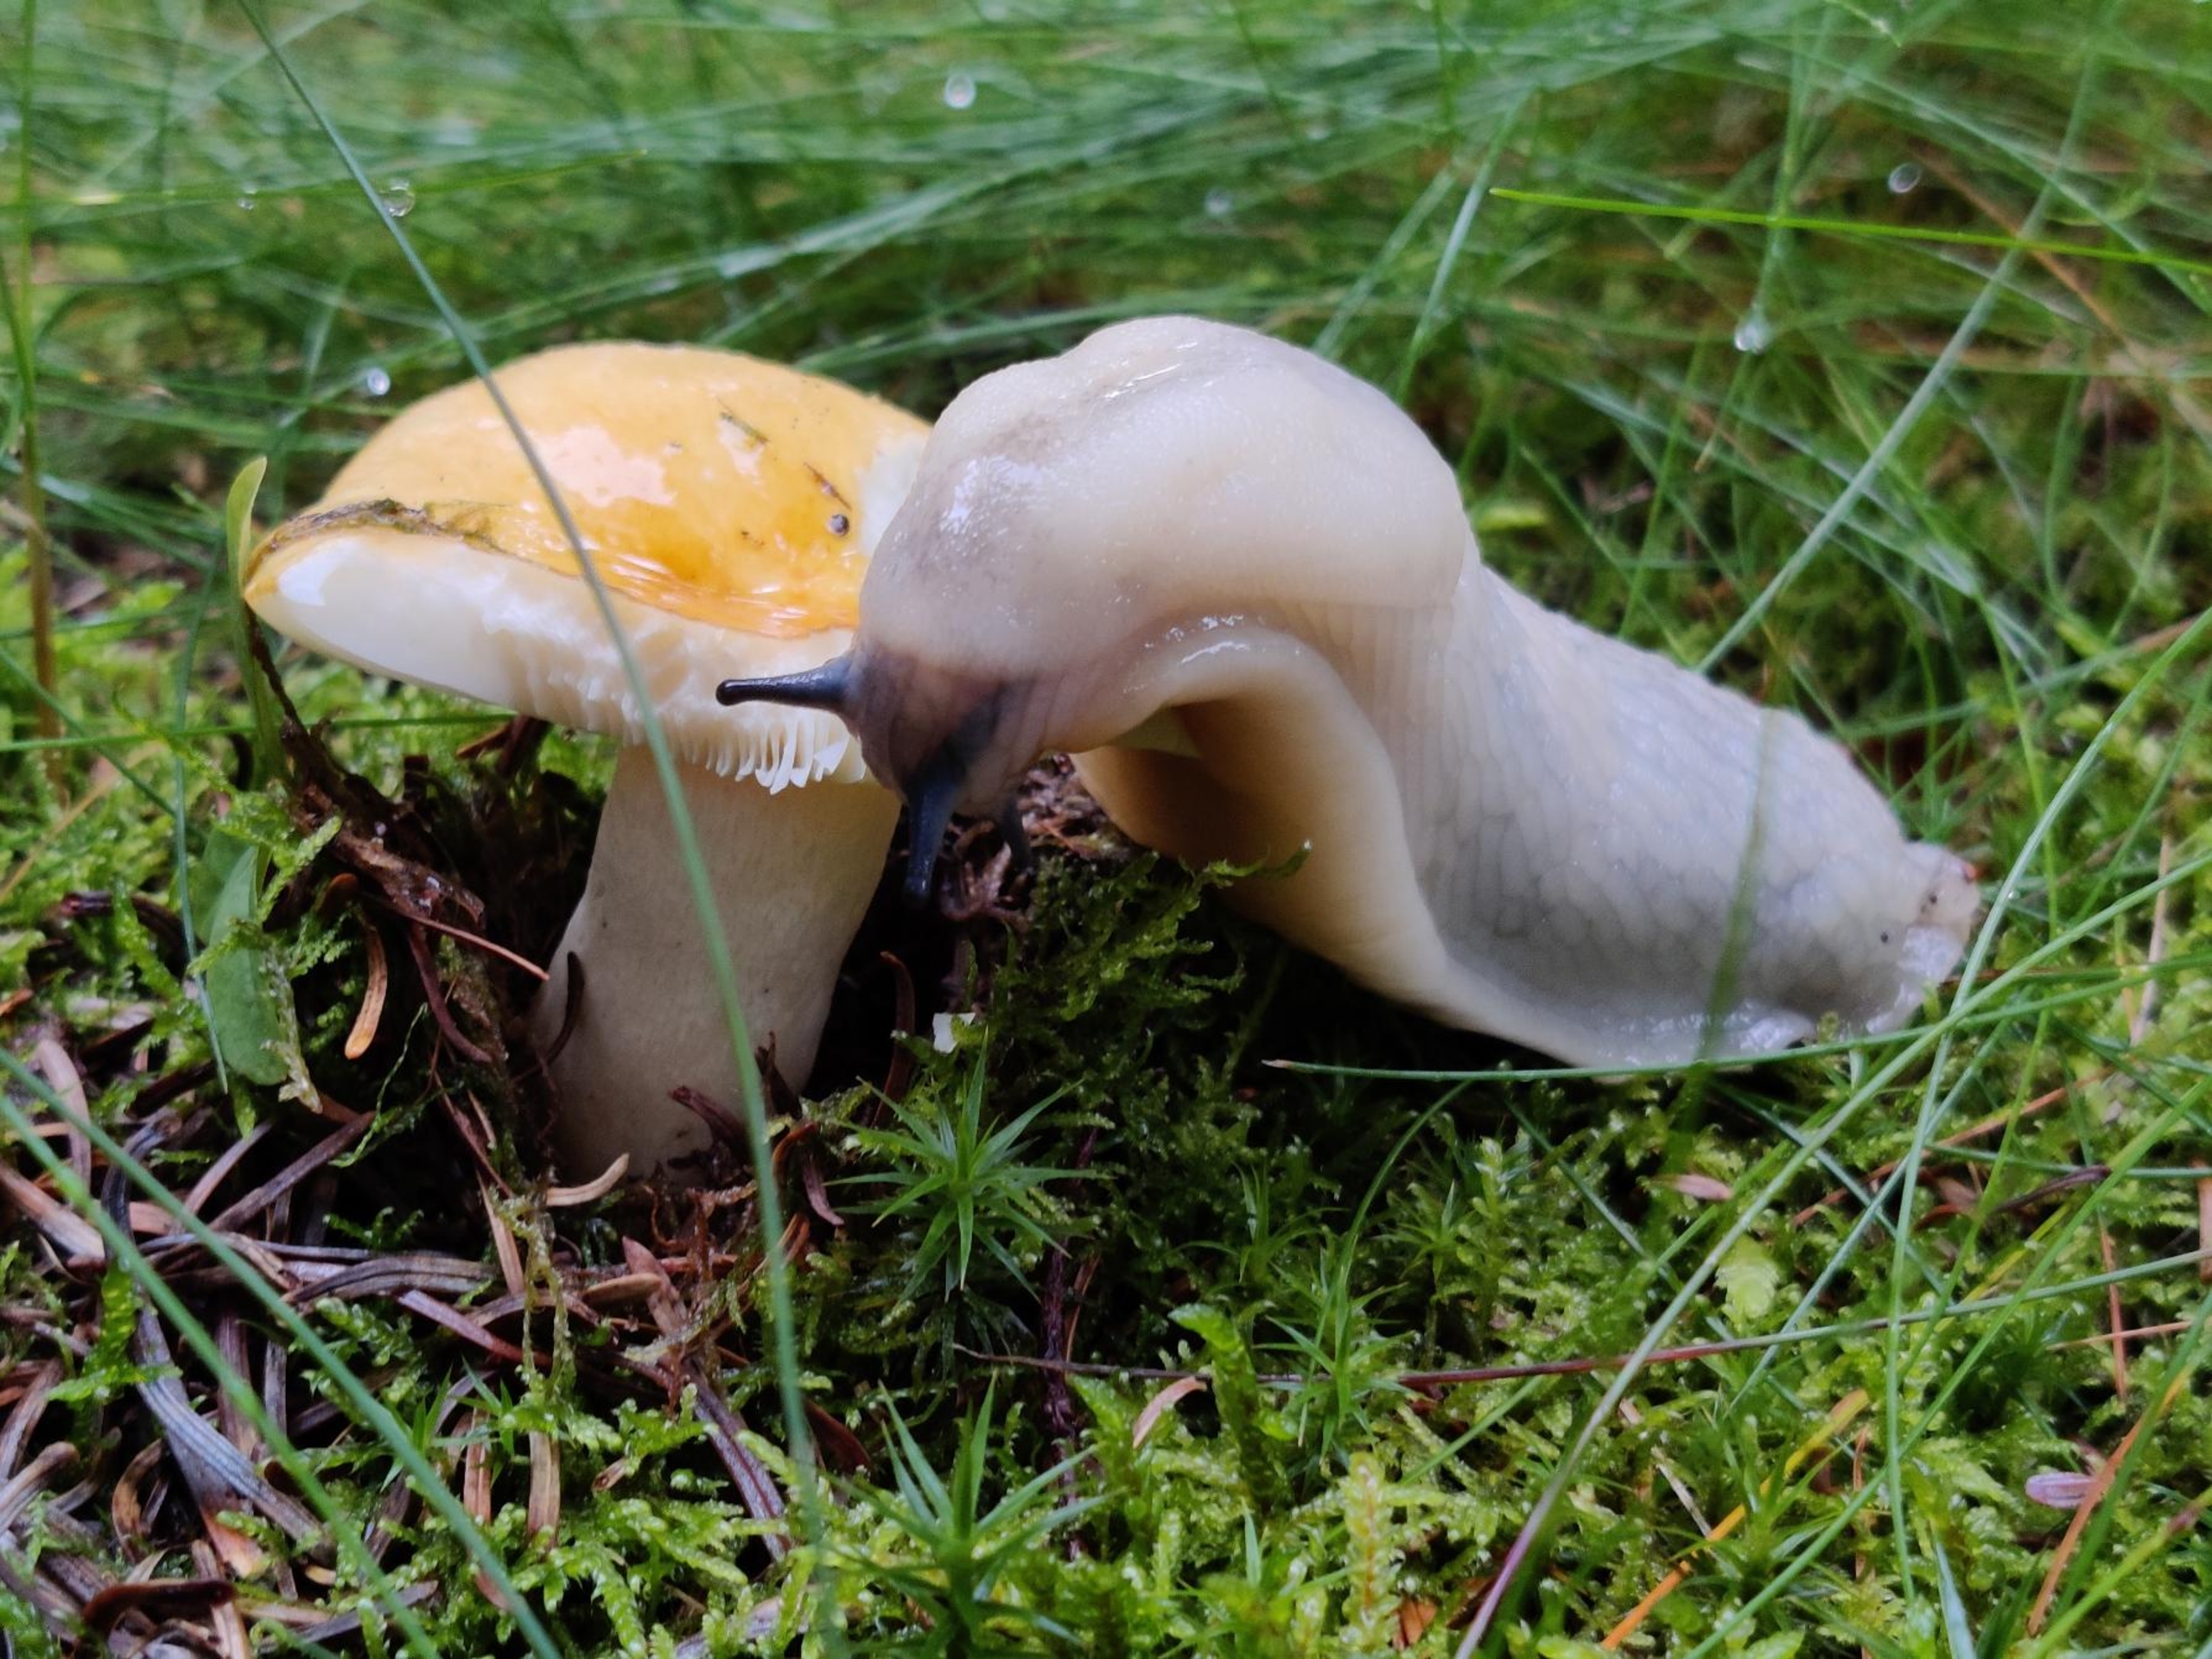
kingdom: Animalia
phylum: Mollusca
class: Gastropoda
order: Stylommatophora
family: Arionidae
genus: Arion
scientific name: Arion ater
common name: Sort skovsnegl
